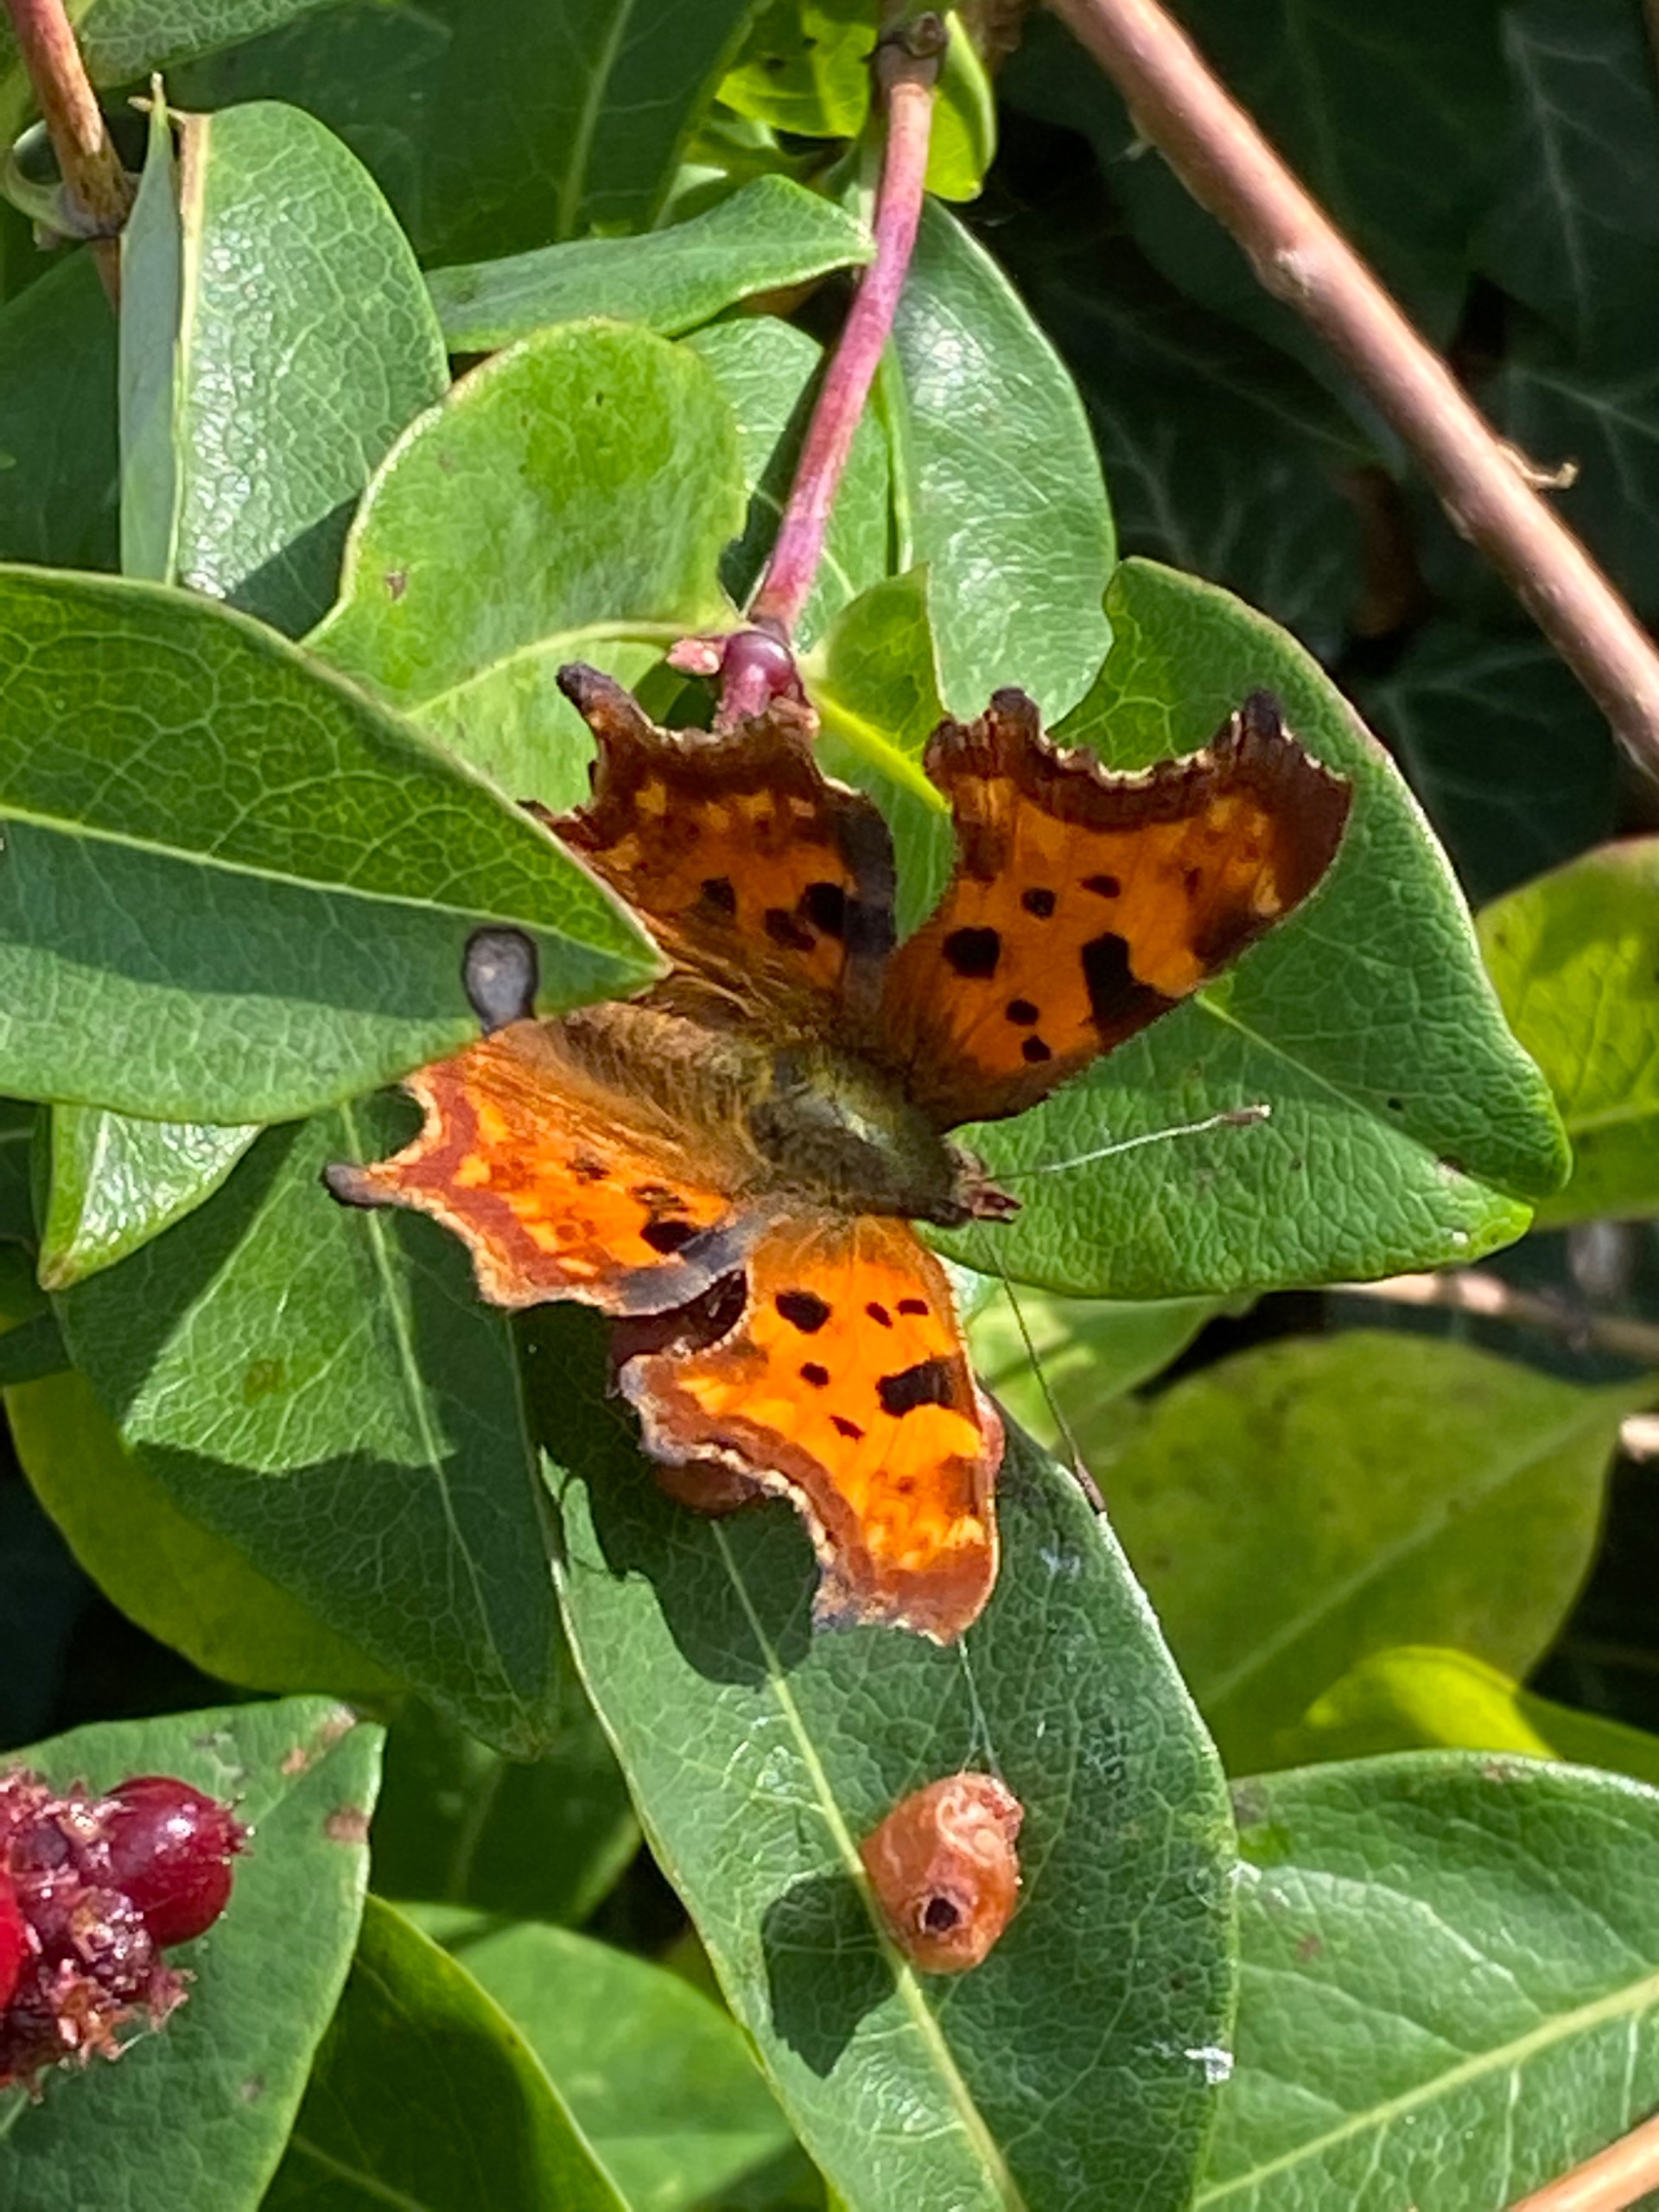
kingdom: Animalia
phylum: Arthropoda
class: Insecta
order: Lepidoptera
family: Nymphalidae
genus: Polygonia
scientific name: Polygonia c-album
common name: Det hvide C
